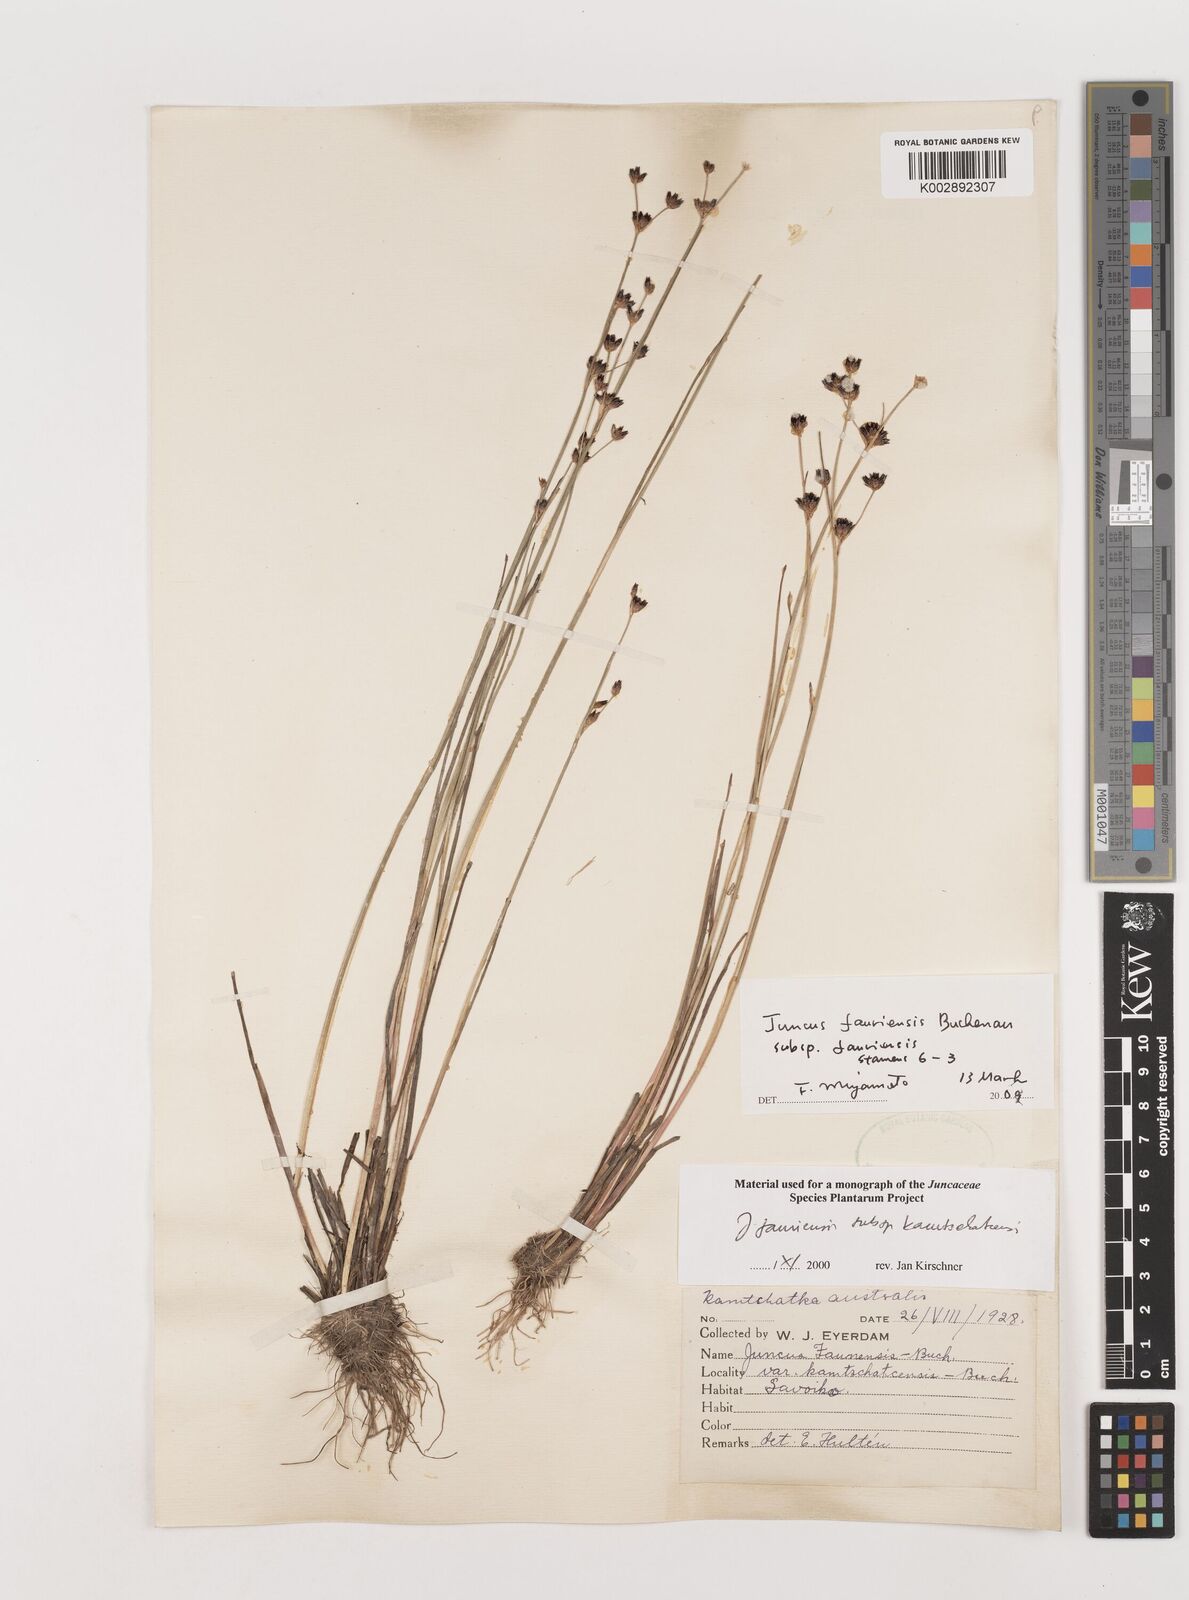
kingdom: Plantae
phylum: Tracheophyta
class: Liliopsida
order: Poales
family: Juncaceae
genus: Juncus
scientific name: Juncus fauriensis
